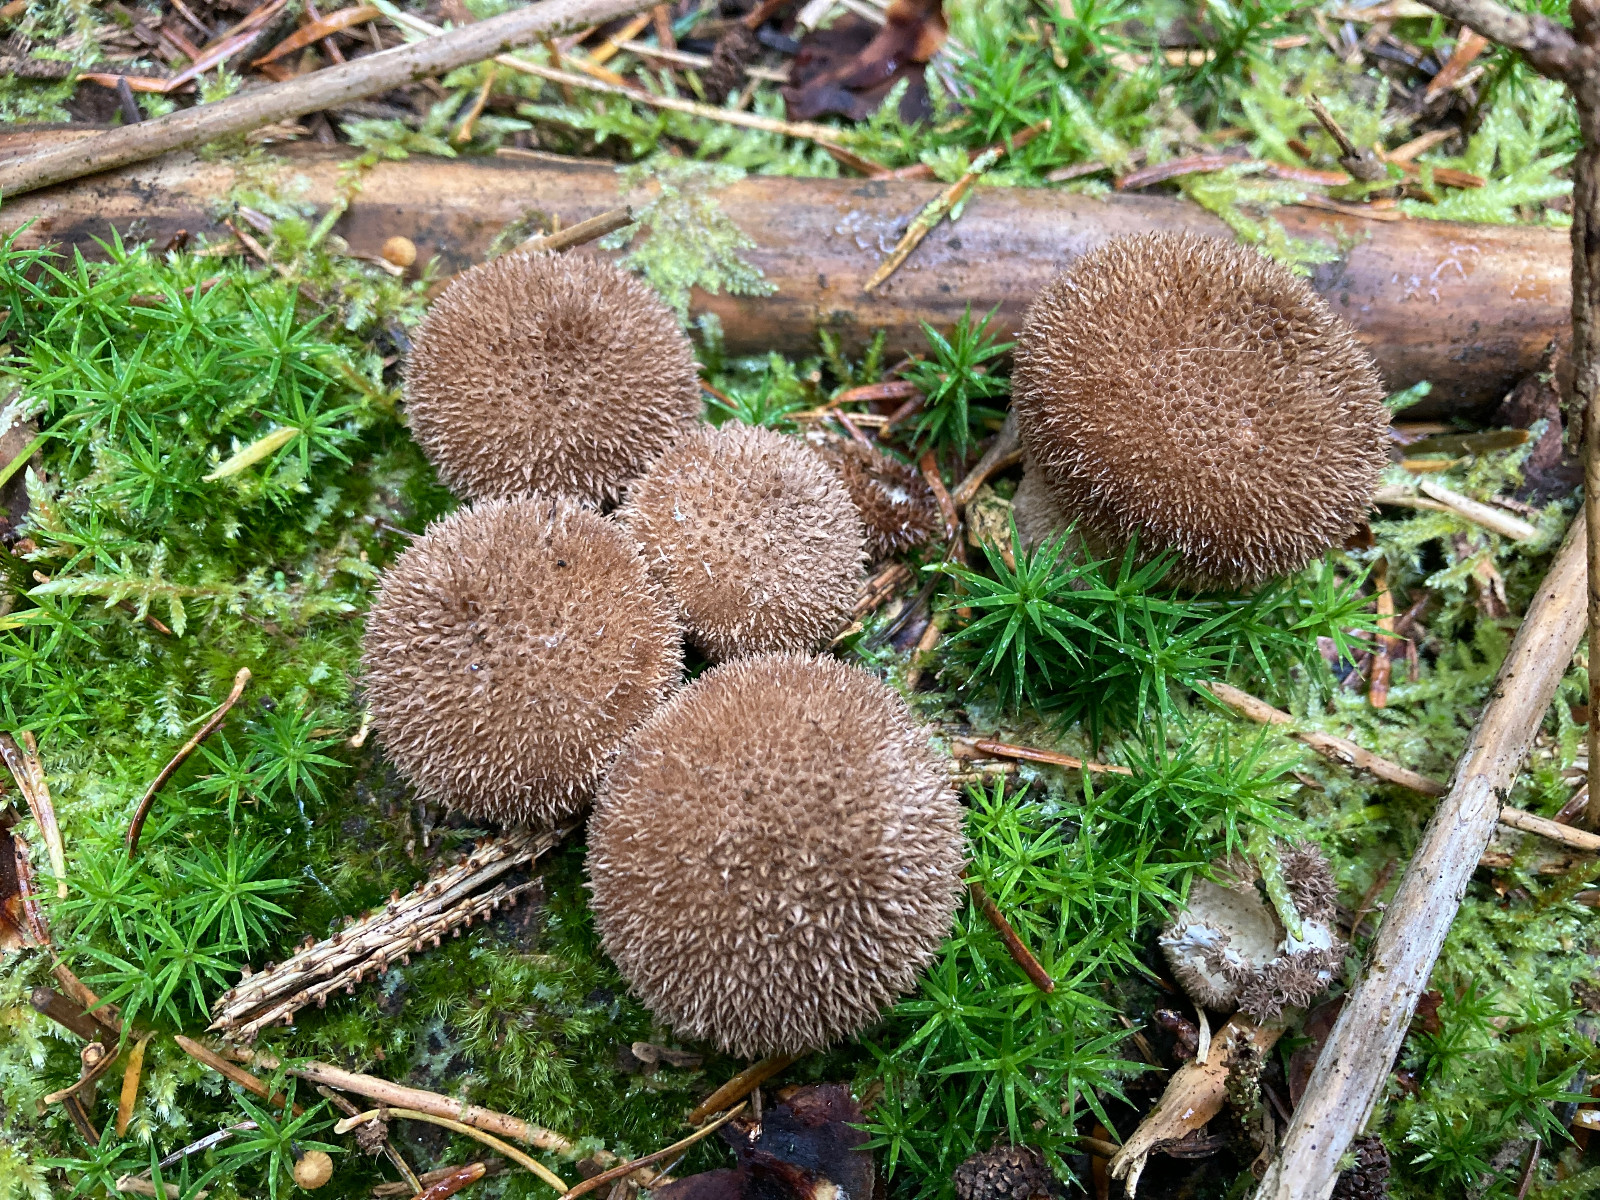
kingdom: Fungi
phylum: Basidiomycota
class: Agaricomycetes
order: Agaricales
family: Lycoperdaceae
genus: Lycoperdon
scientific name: Lycoperdon nigrescens
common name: sortagtig støvbold
